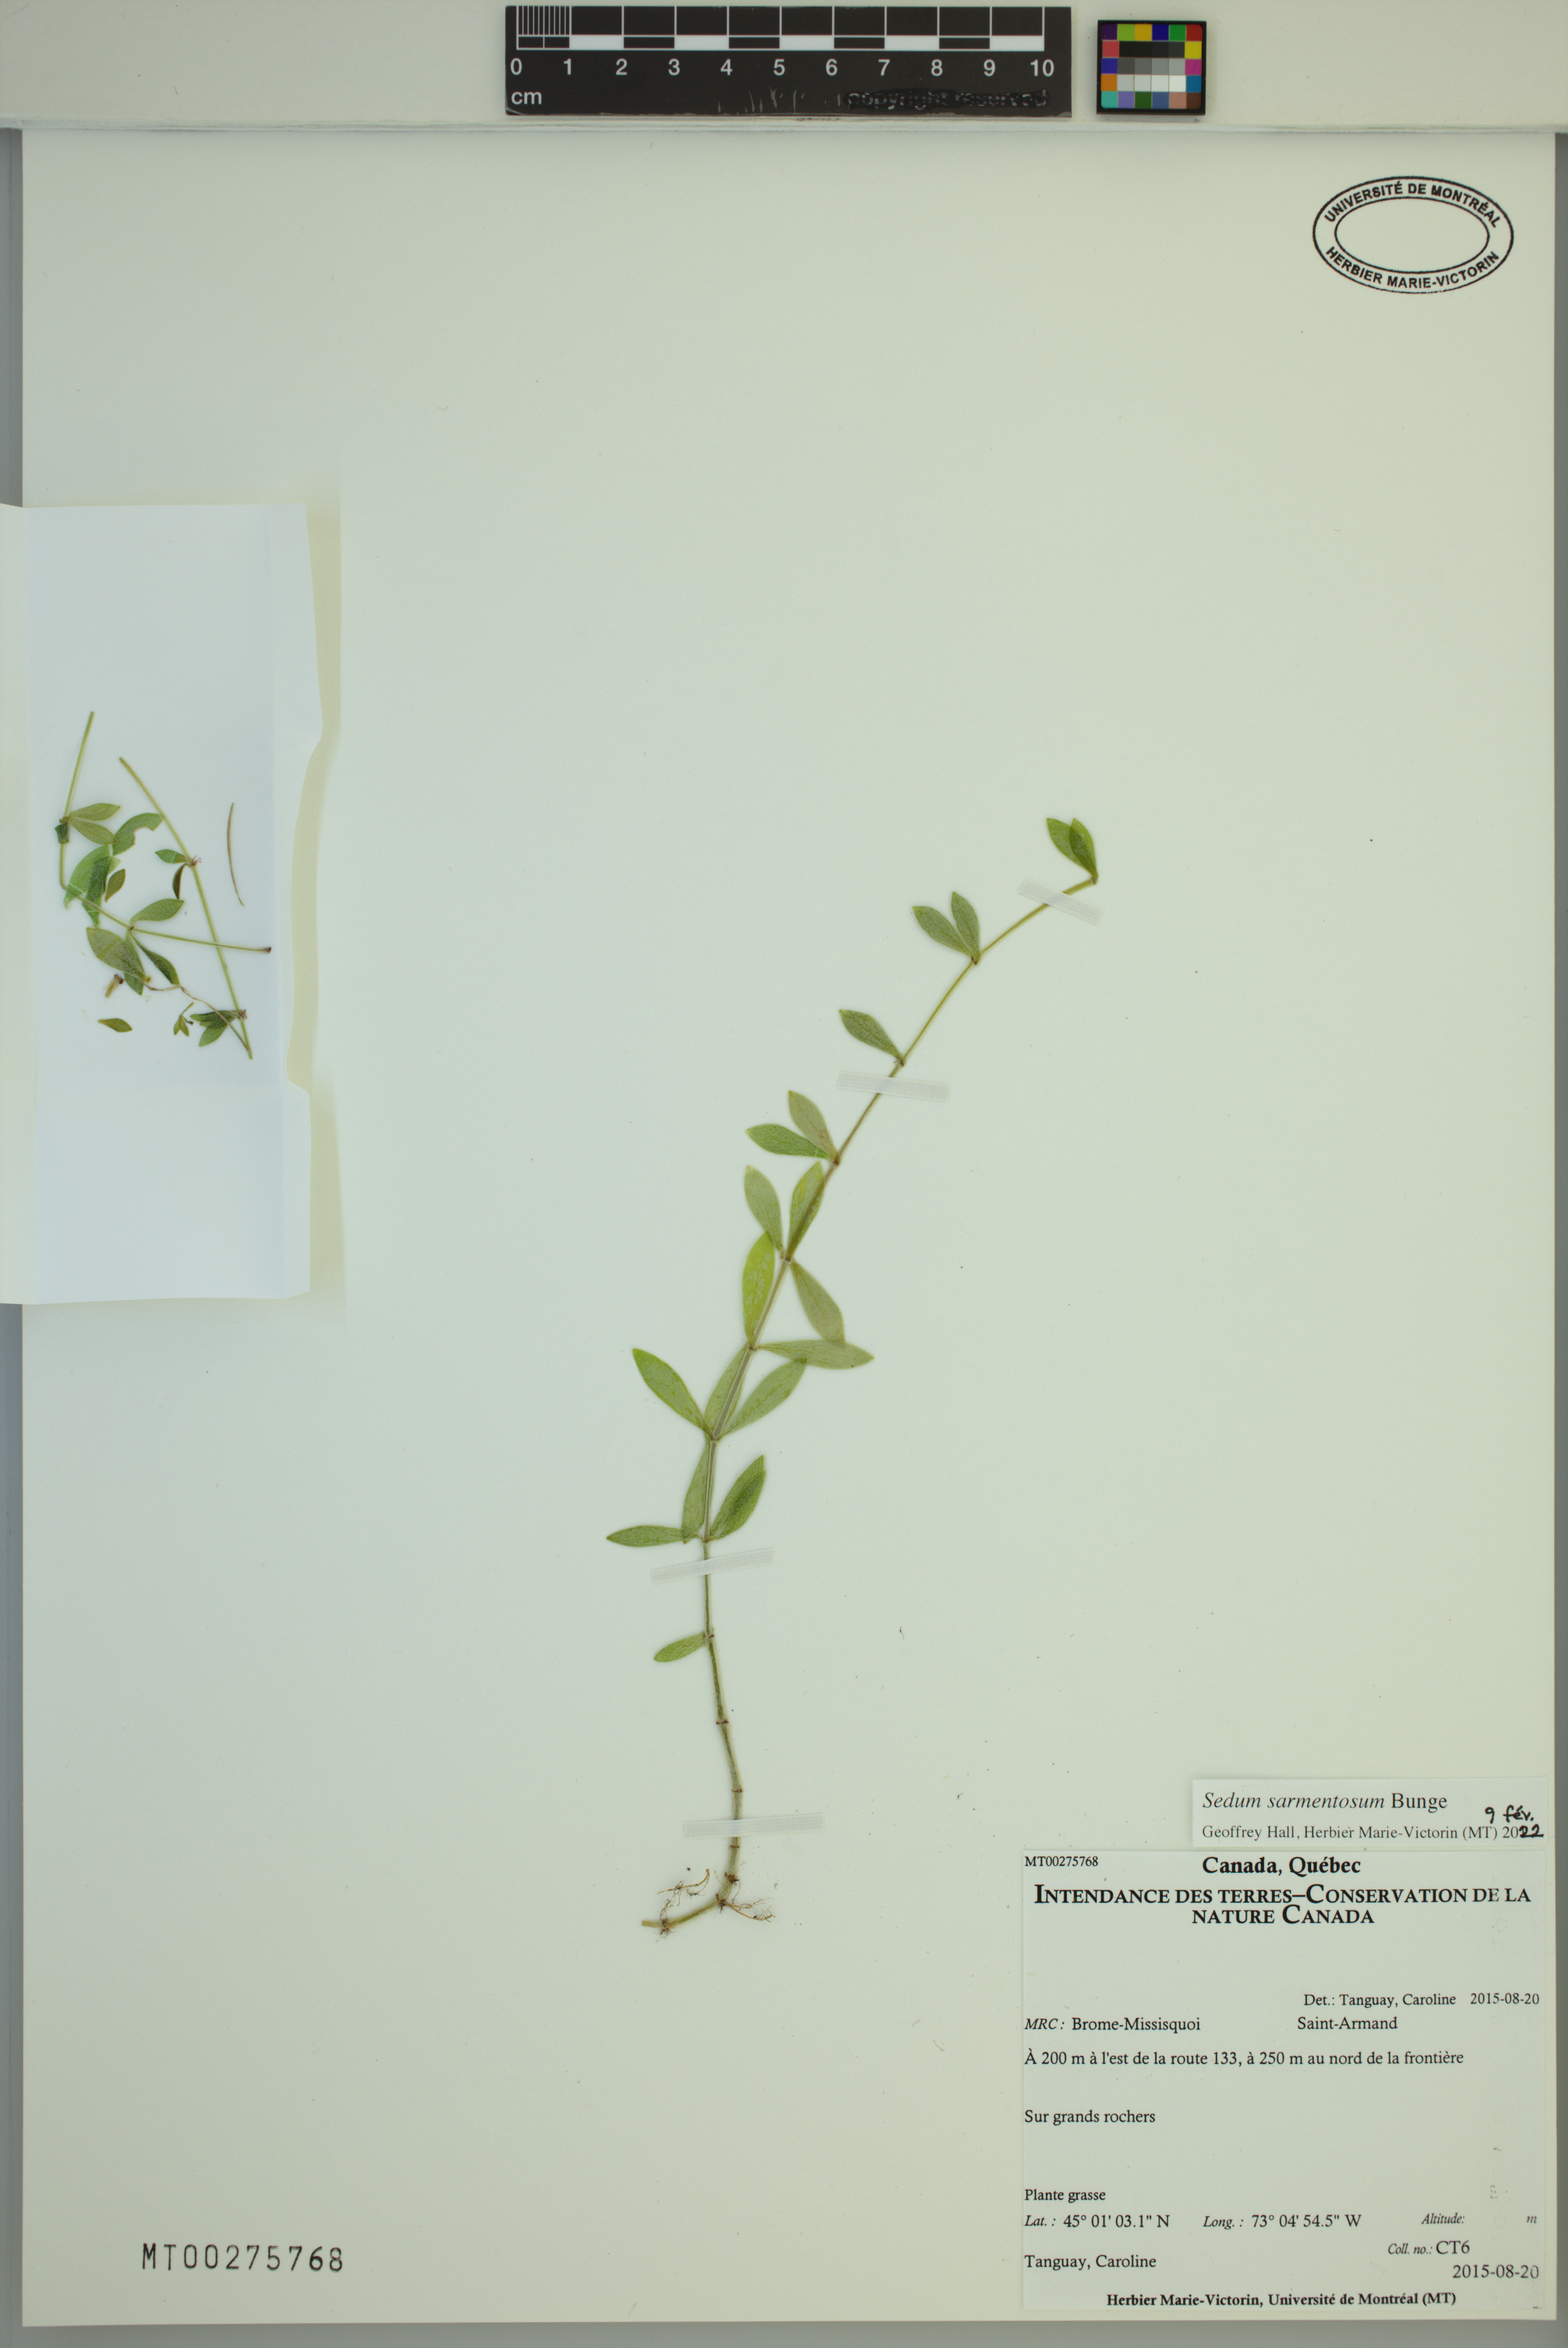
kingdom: Plantae
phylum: Tracheophyta
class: Magnoliopsida
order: Saxifragales
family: Crassulaceae
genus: Sedum
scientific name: Sedum sarmentosum
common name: Stringy stonecrop
